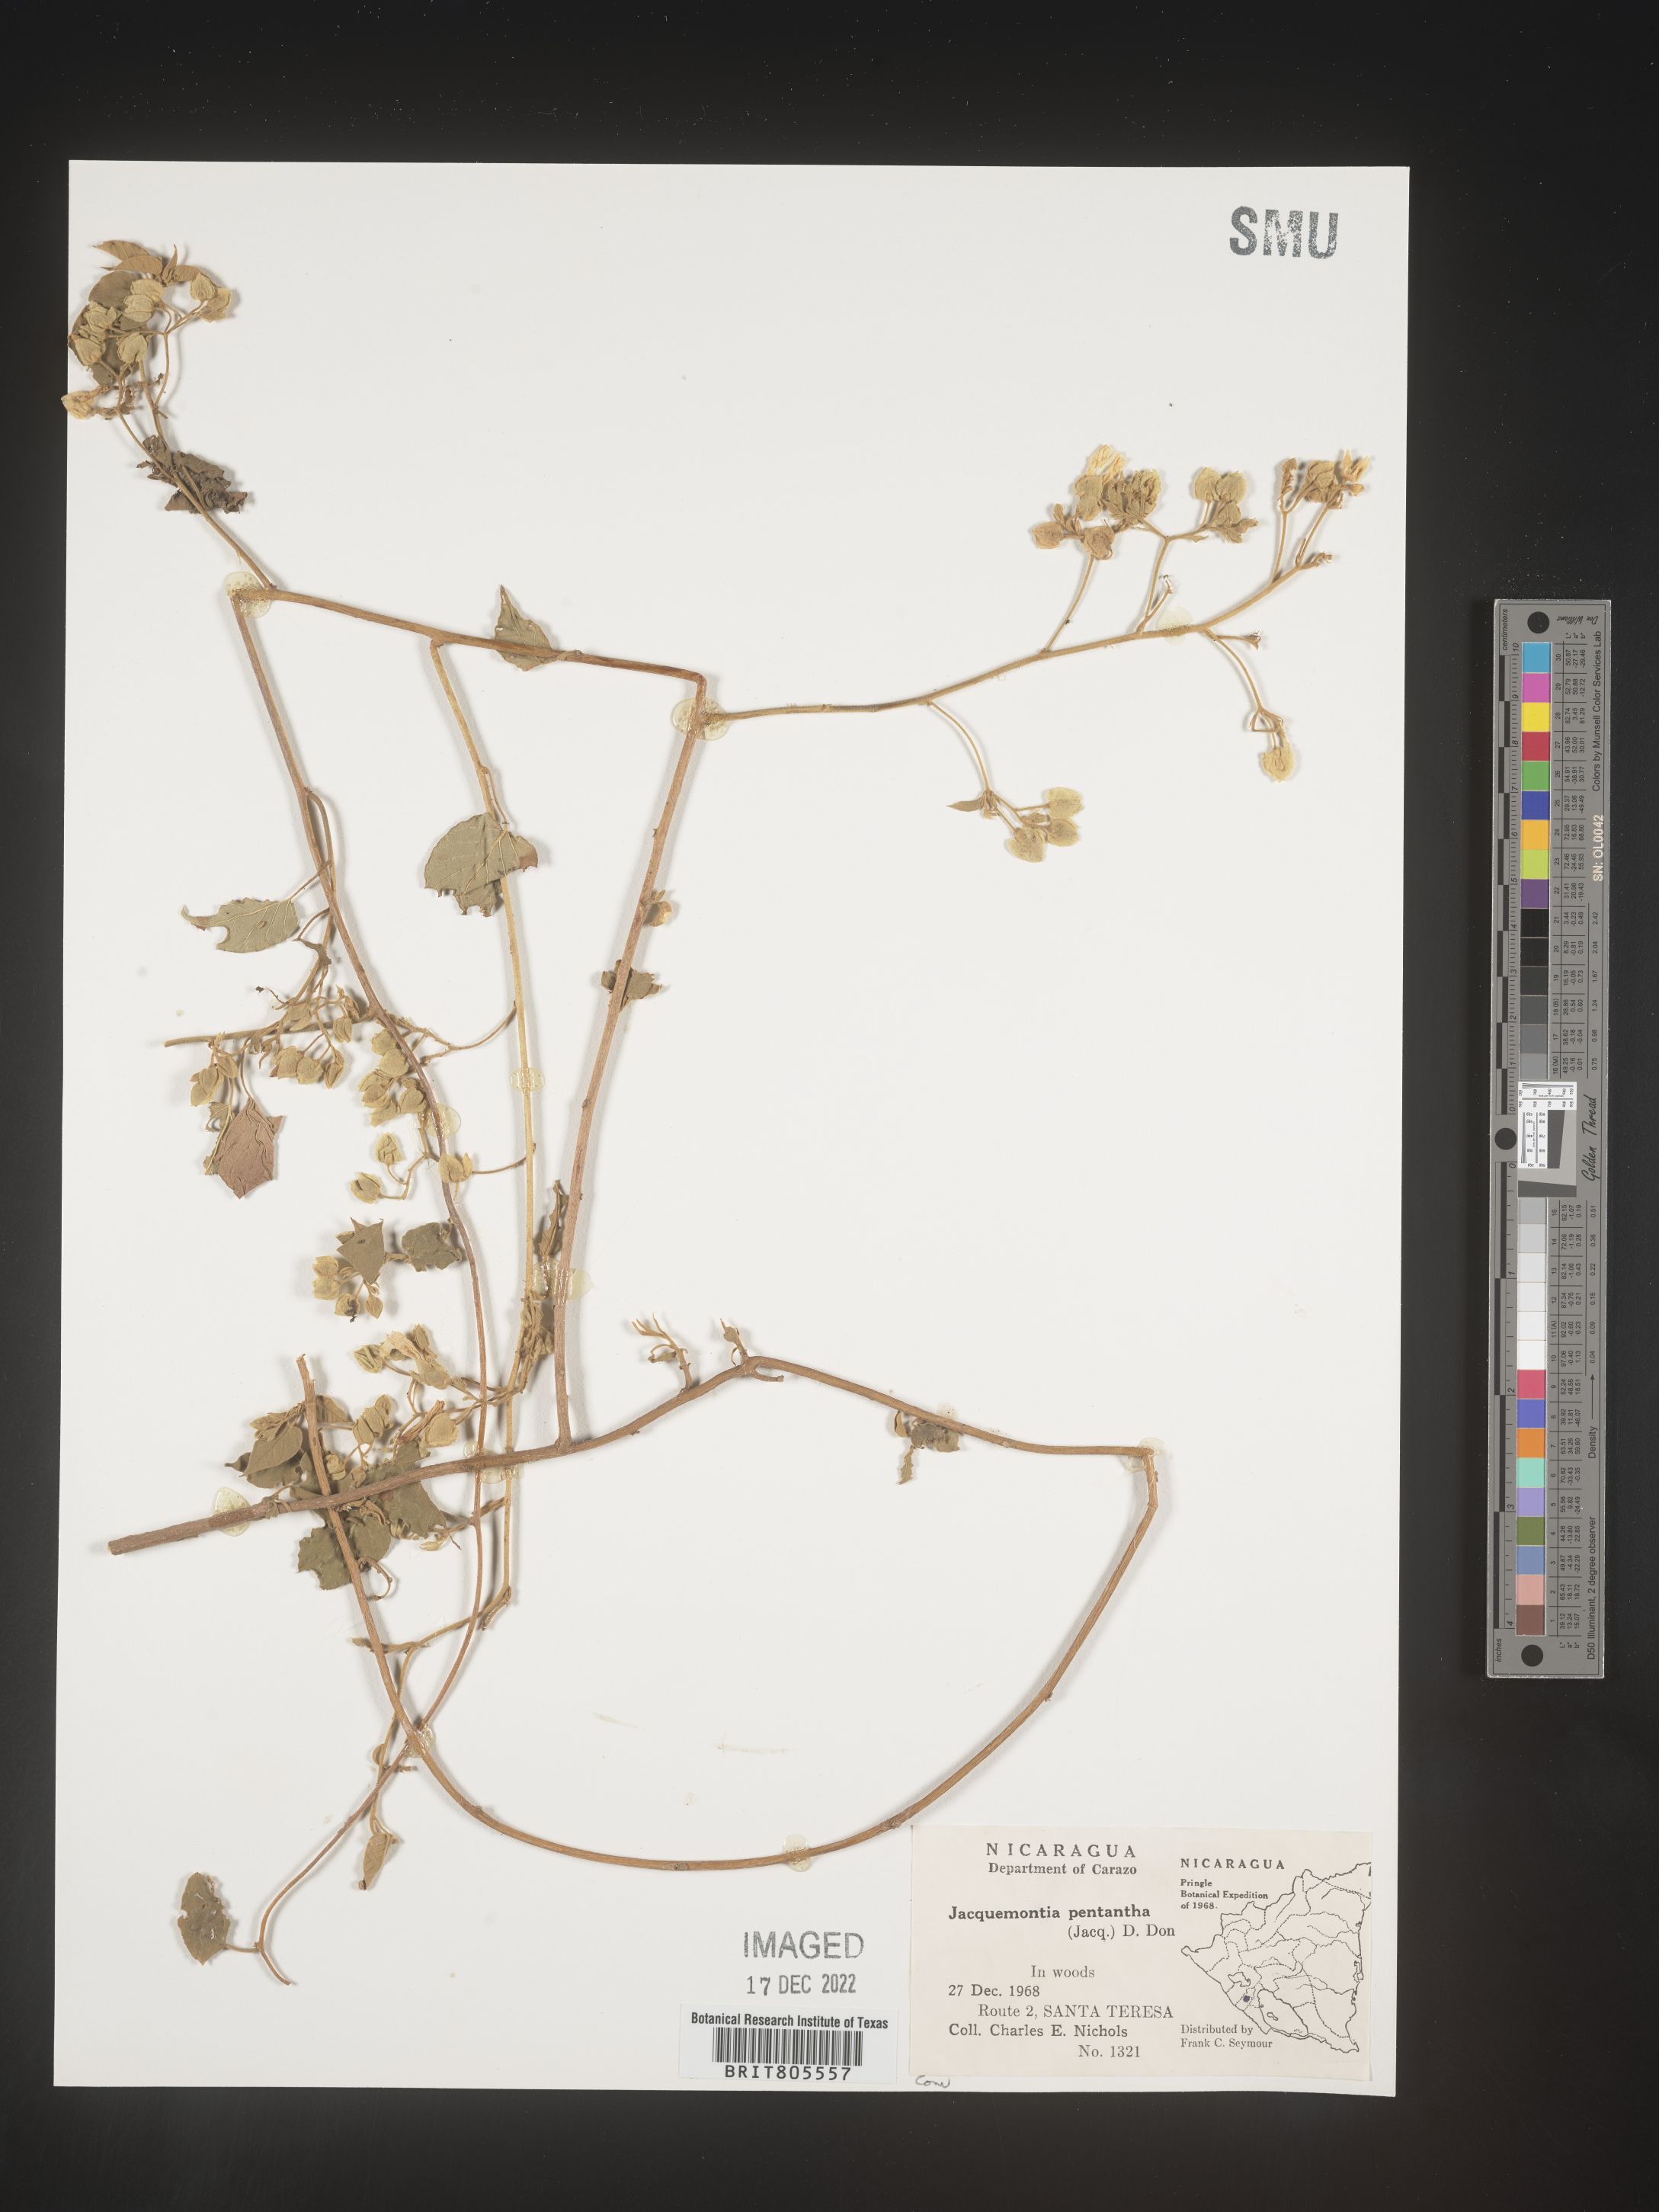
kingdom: Plantae
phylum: Tracheophyta
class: Magnoliopsida
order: Solanales
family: Convolvulaceae
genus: Jacquemontia
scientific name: Jacquemontia
